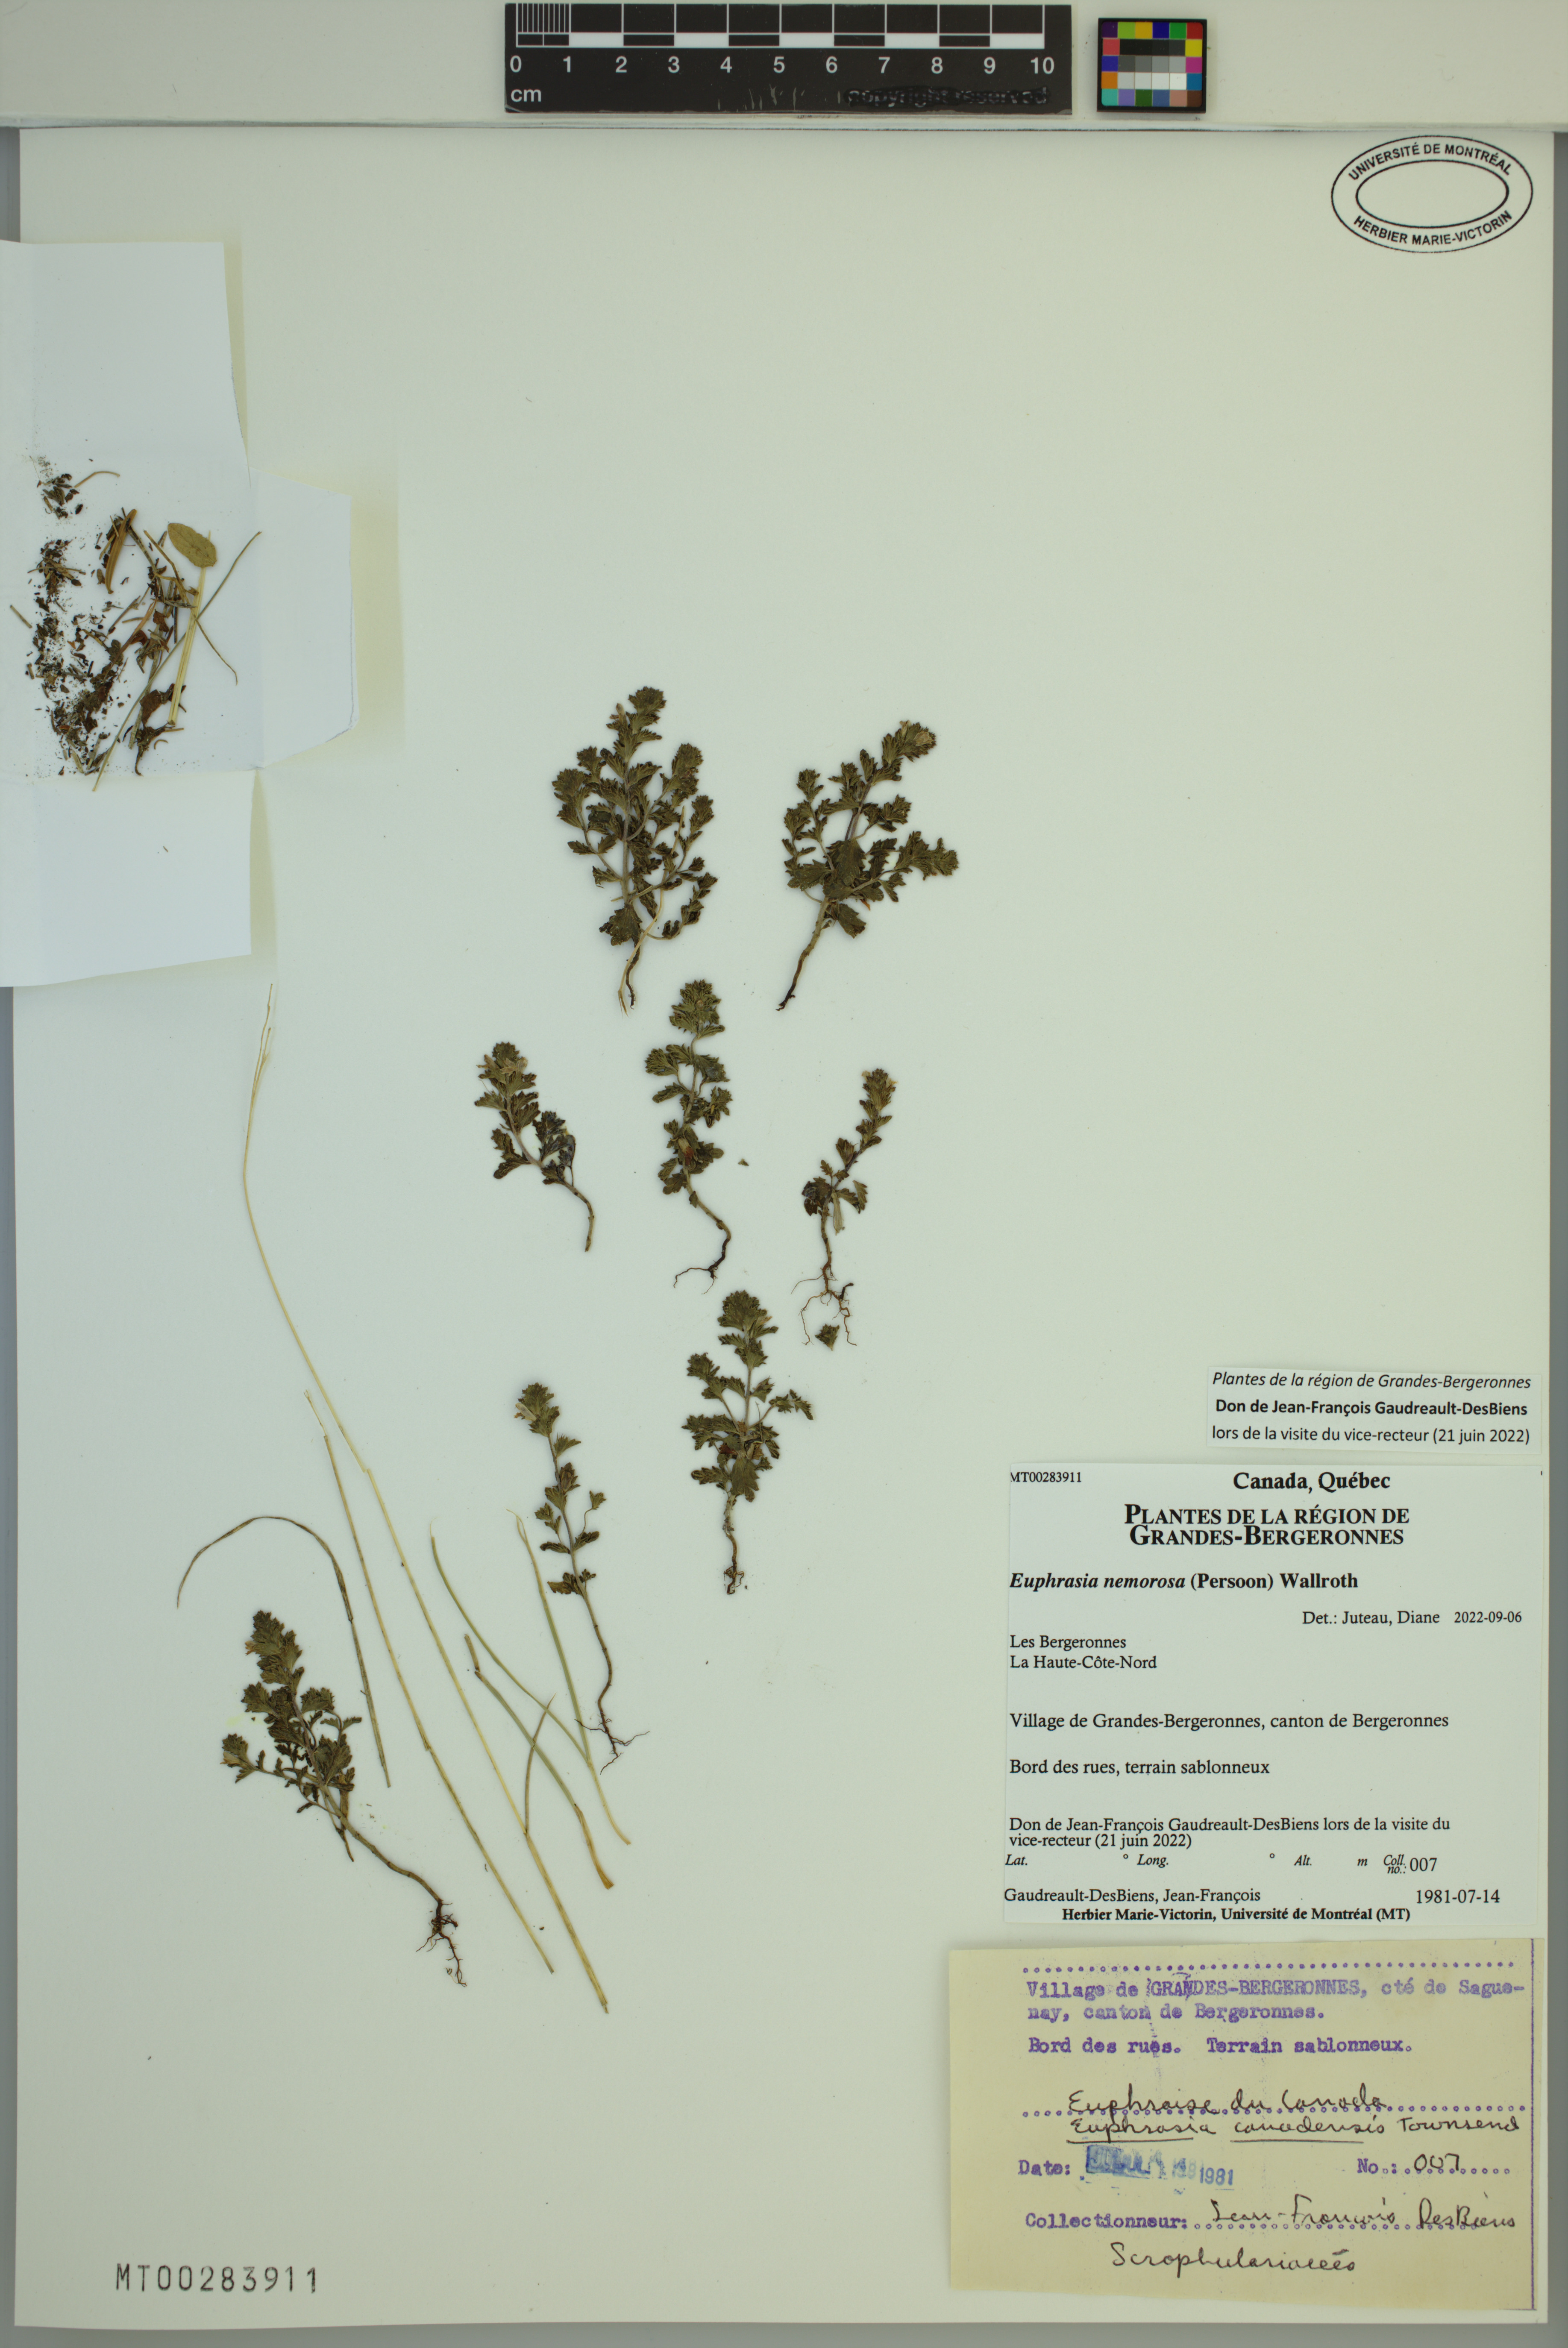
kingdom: Plantae
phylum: Tracheophyta
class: Magnoliopsida
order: Lamiales
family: Orobanchaceae
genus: Euphrasia
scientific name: Euphrasia nemorosa
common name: Common eyebright
